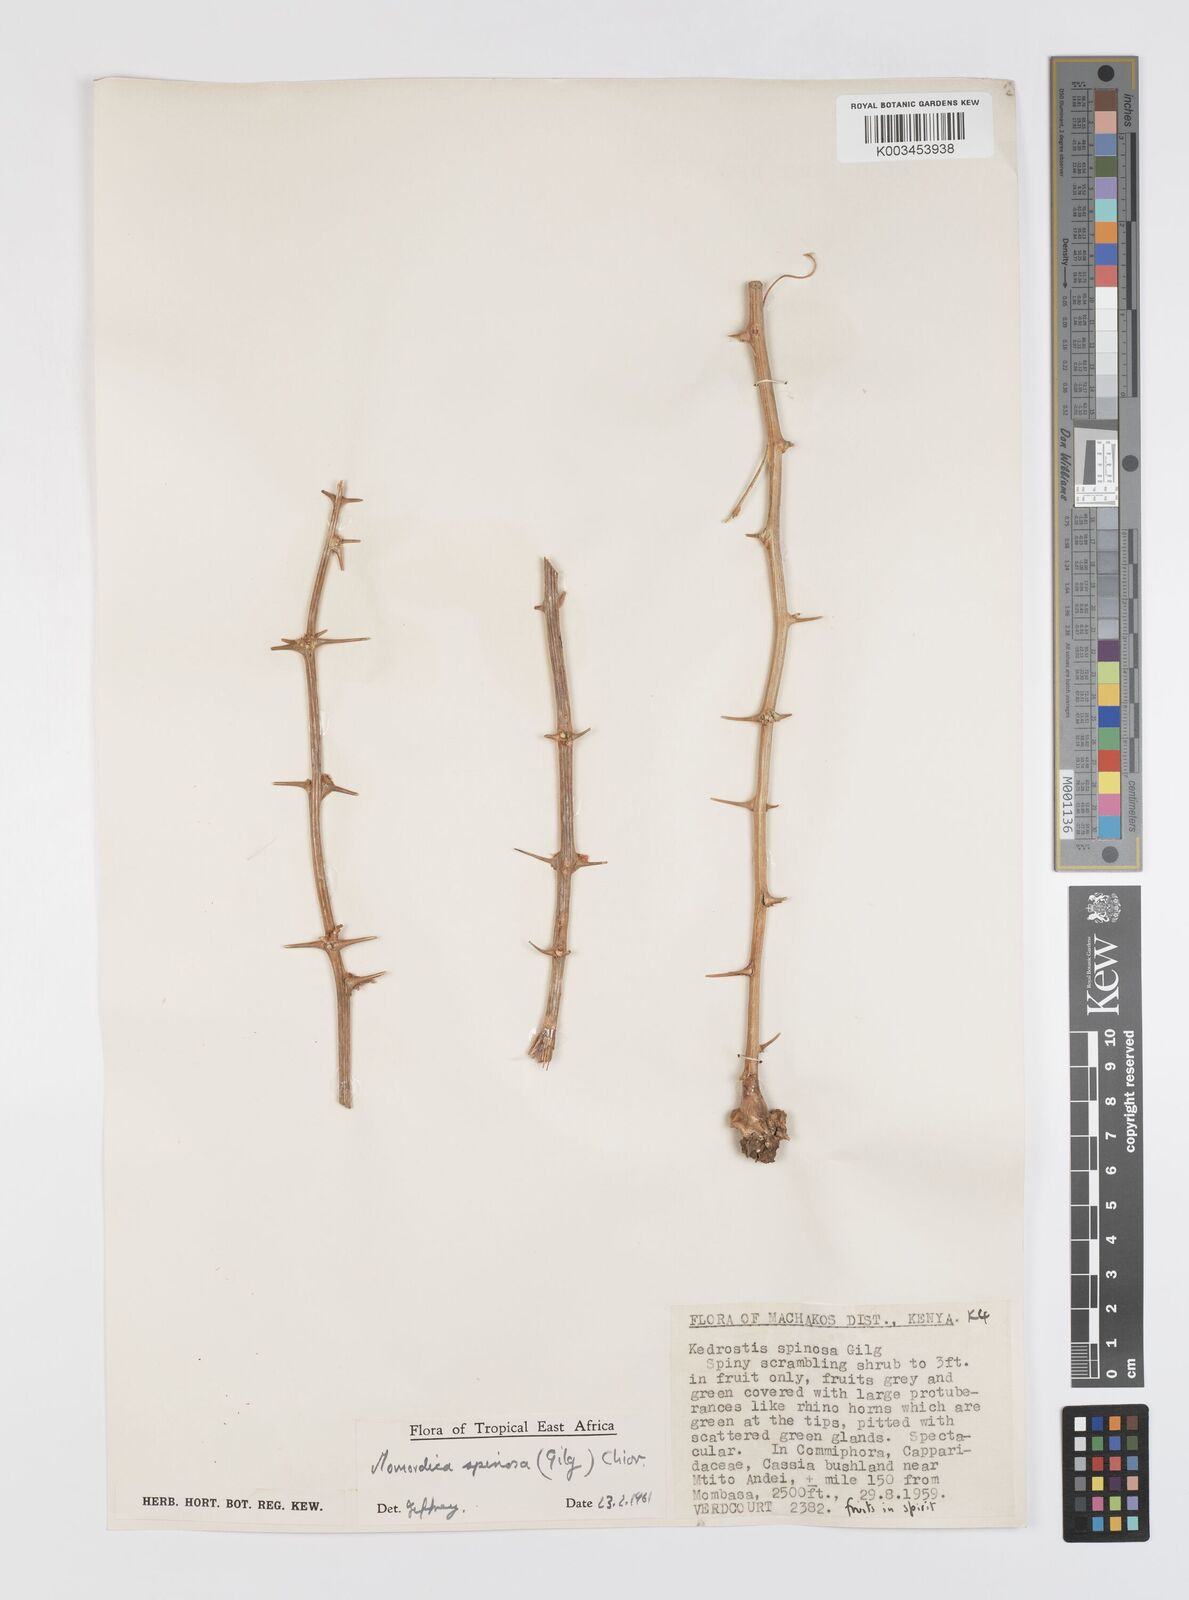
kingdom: Plantae
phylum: Tracheophyta
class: Magnoliopsida
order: Cucurbitales
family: Cucurbitaceae
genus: Momordica
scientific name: Momordica spinosa
